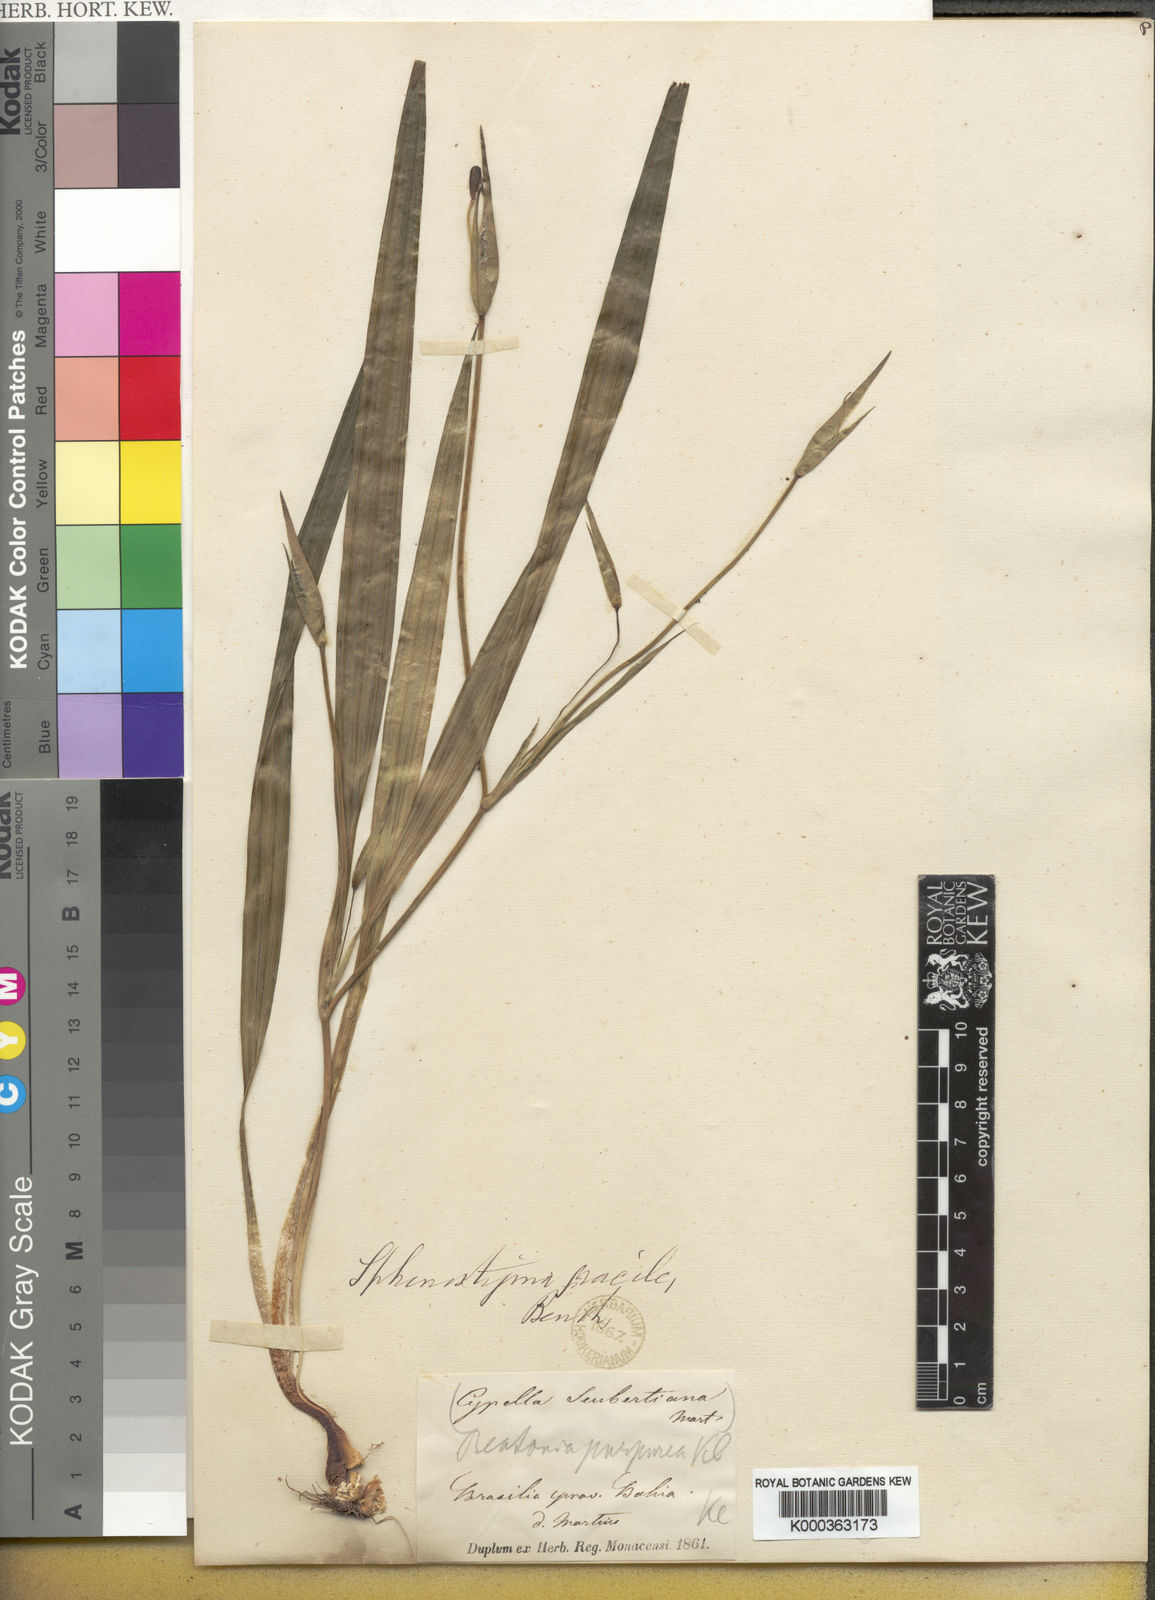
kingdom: Plantae
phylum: Tracheophyta
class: Liliopsida
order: Asparagales
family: Iridaceae
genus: Larentia
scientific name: Larentia linearis
